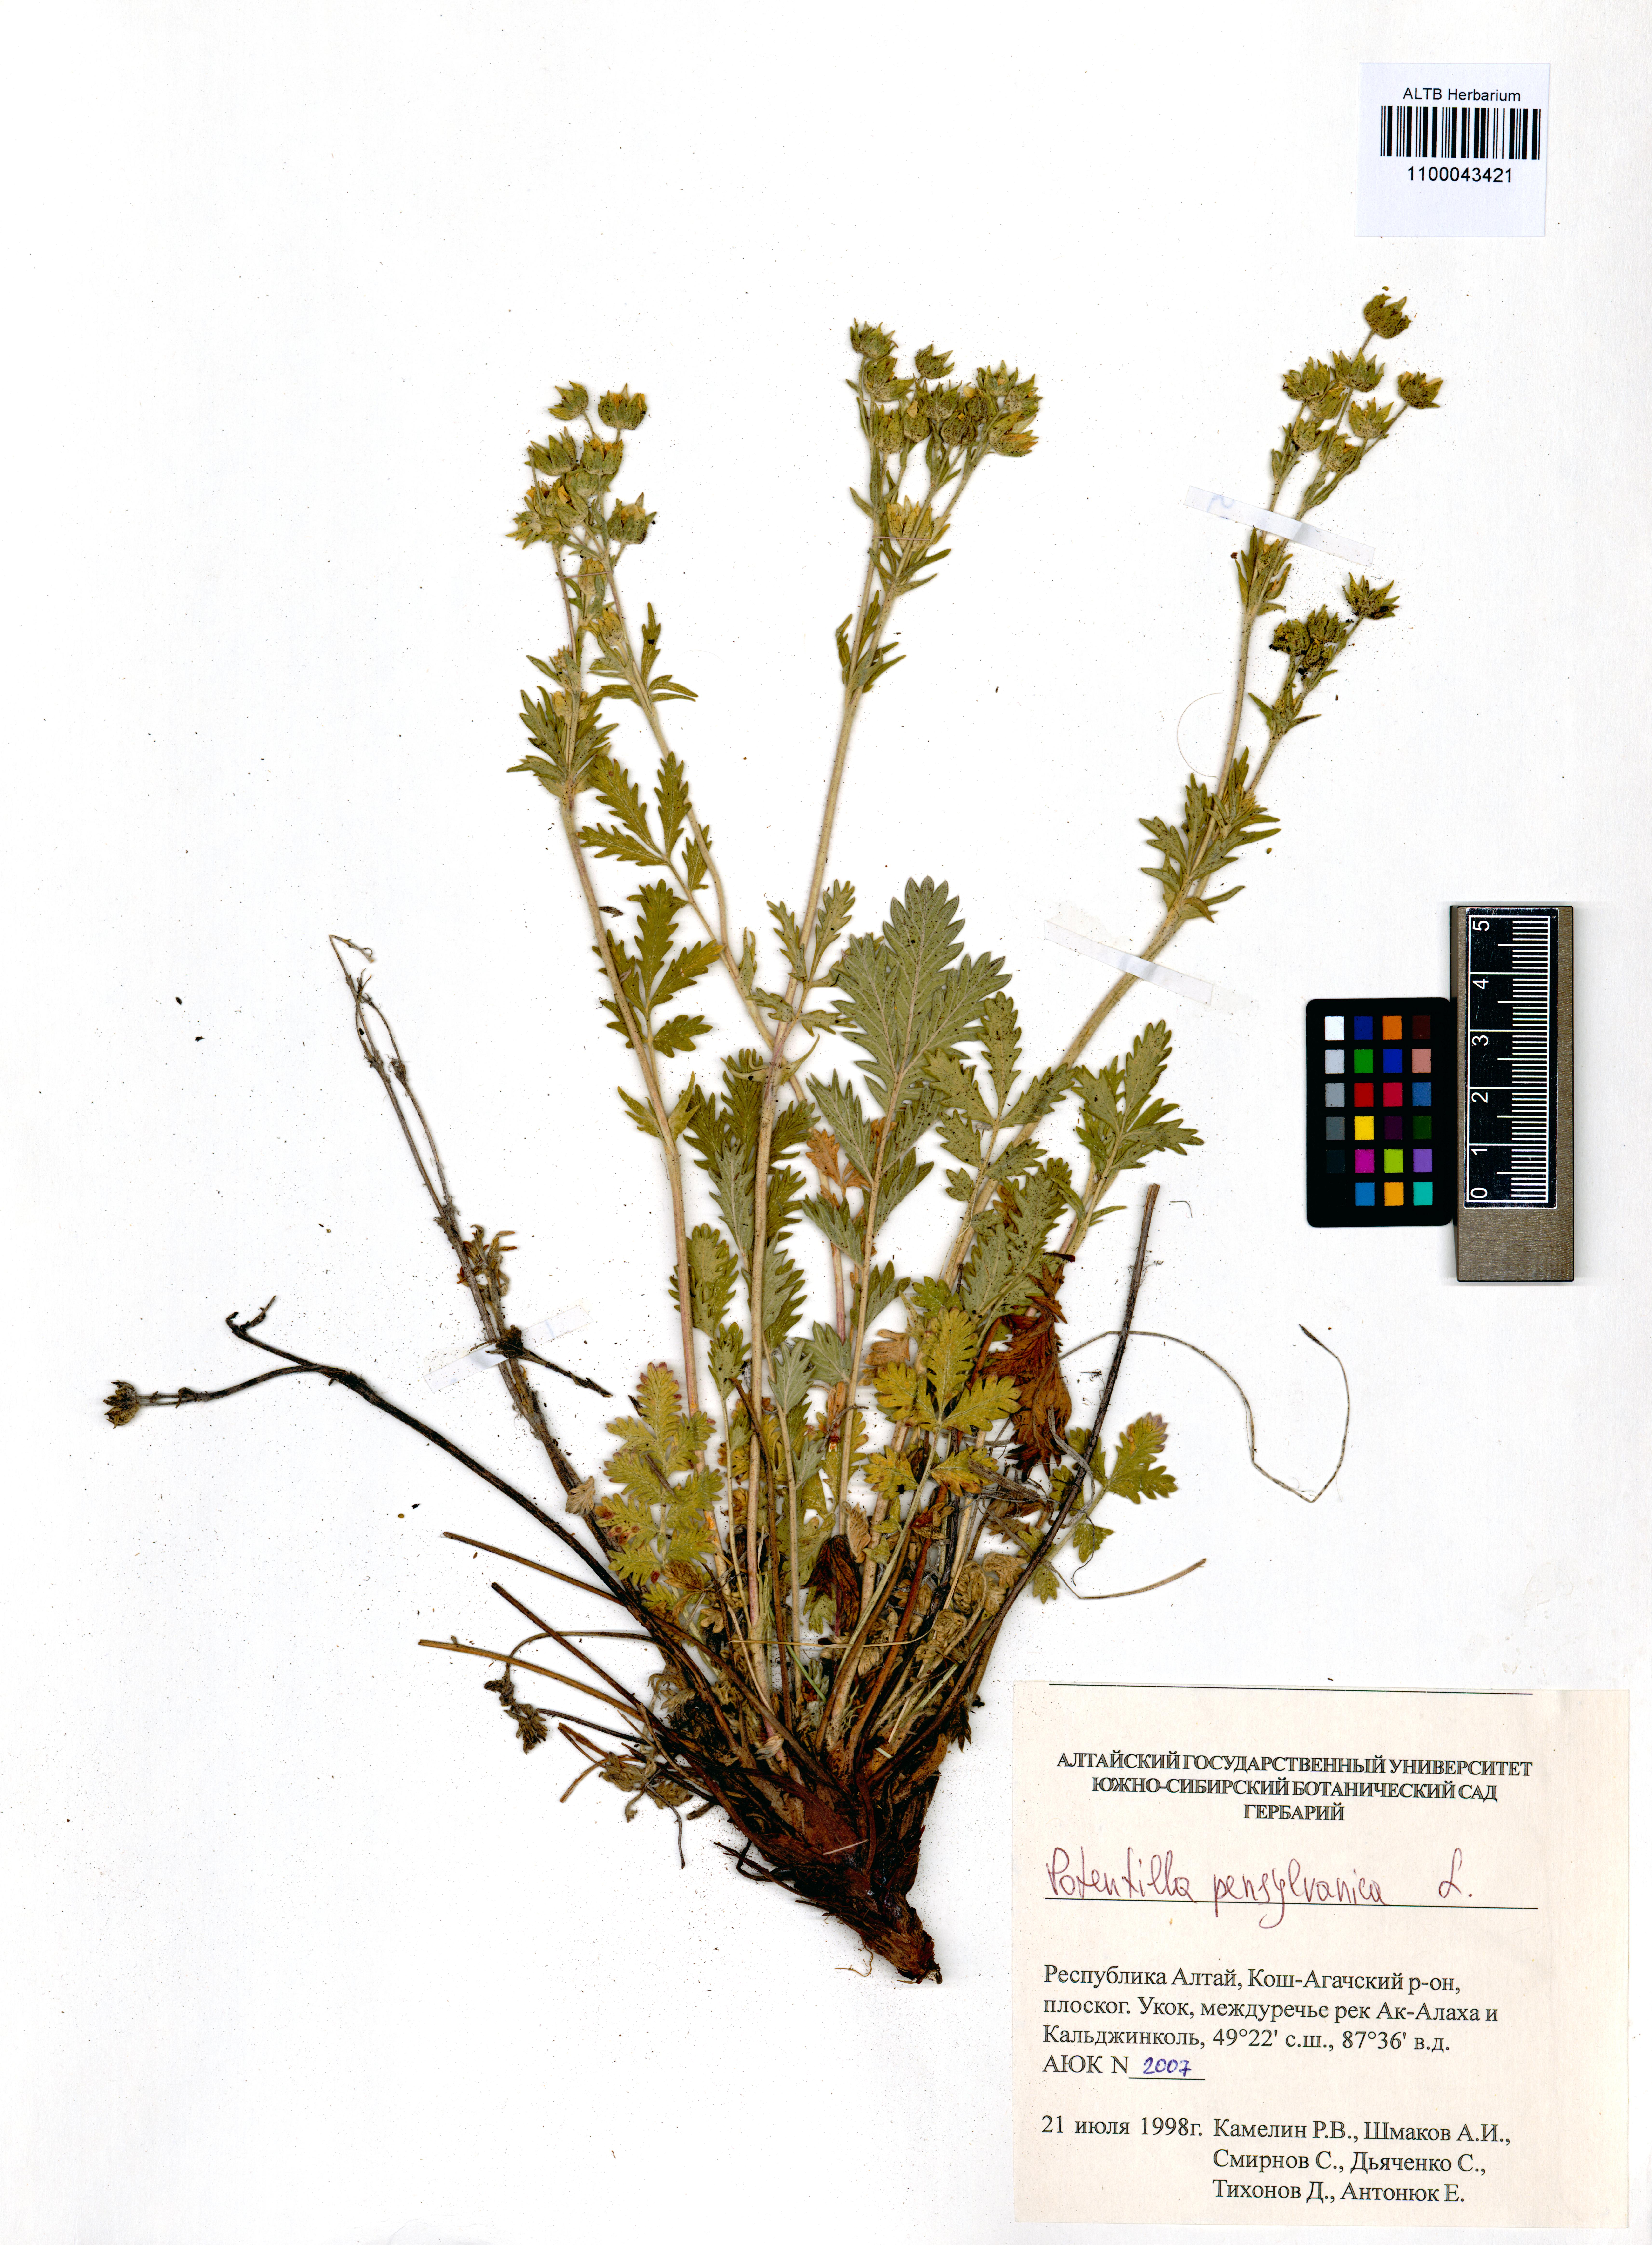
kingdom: Plantae
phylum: Tracheophyta
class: Magnoliopsida
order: Rosales
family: Rosaceae
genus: Potentilla
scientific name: Potentilla pensylvanica
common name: Pennsylvania cinquefoil
